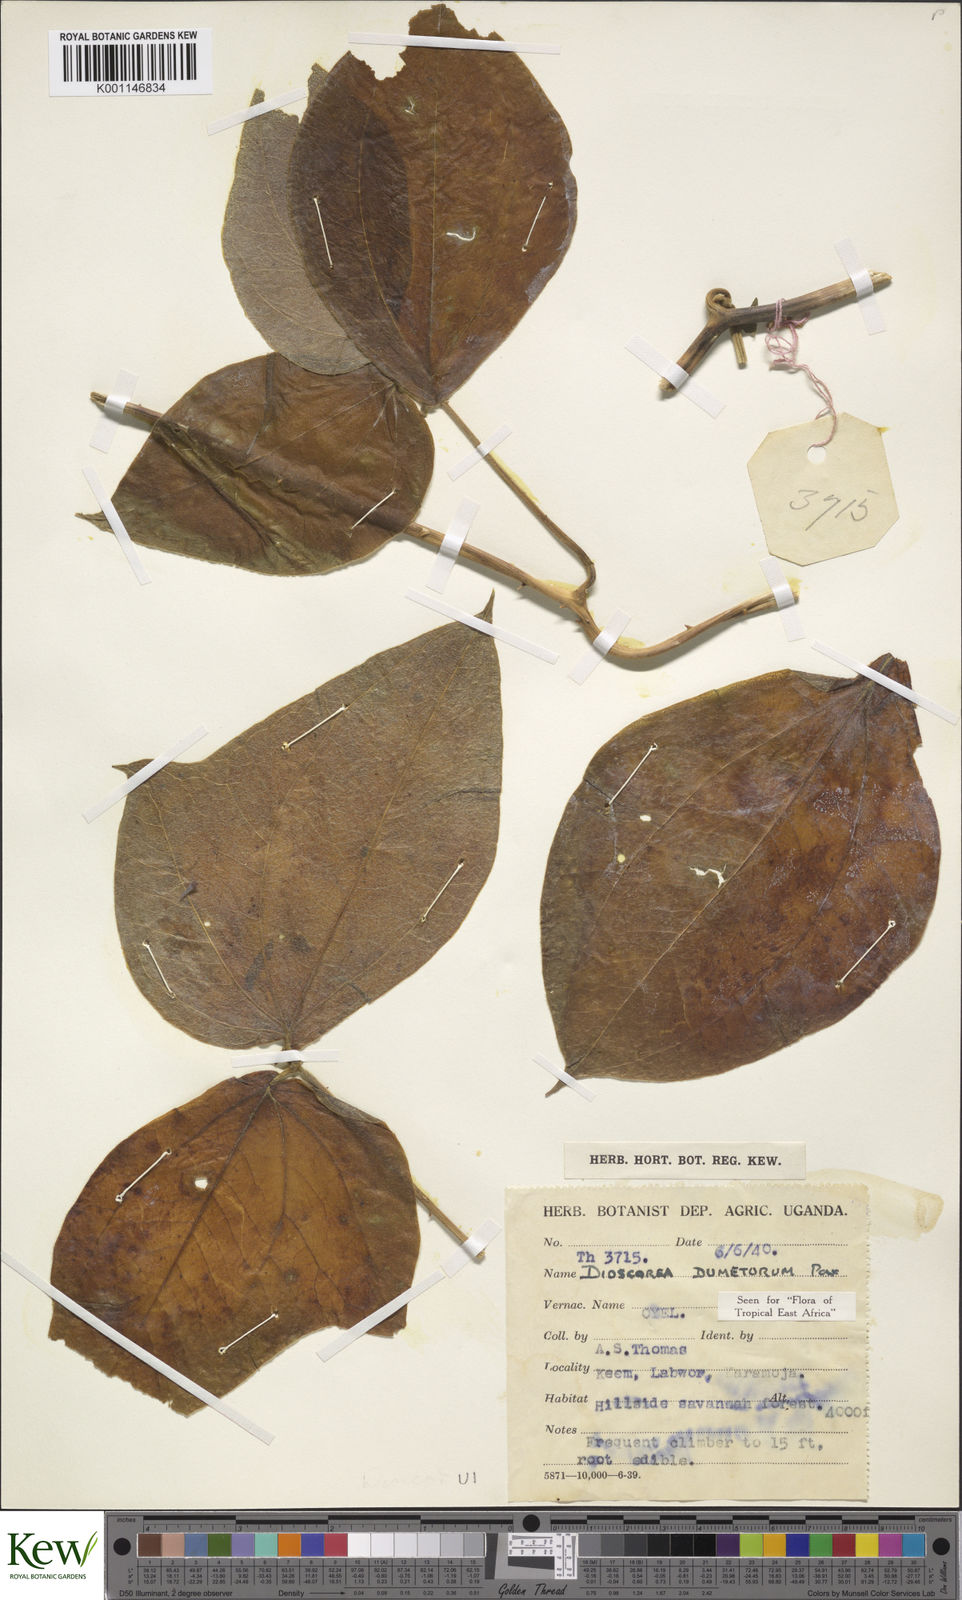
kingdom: Plantae
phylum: Tracheophyta
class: Liliopsida
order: Dioscoreales
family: Dioscoreaceae
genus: Dioscorea
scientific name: Dioscorea dumetorum
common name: African bitter yam
